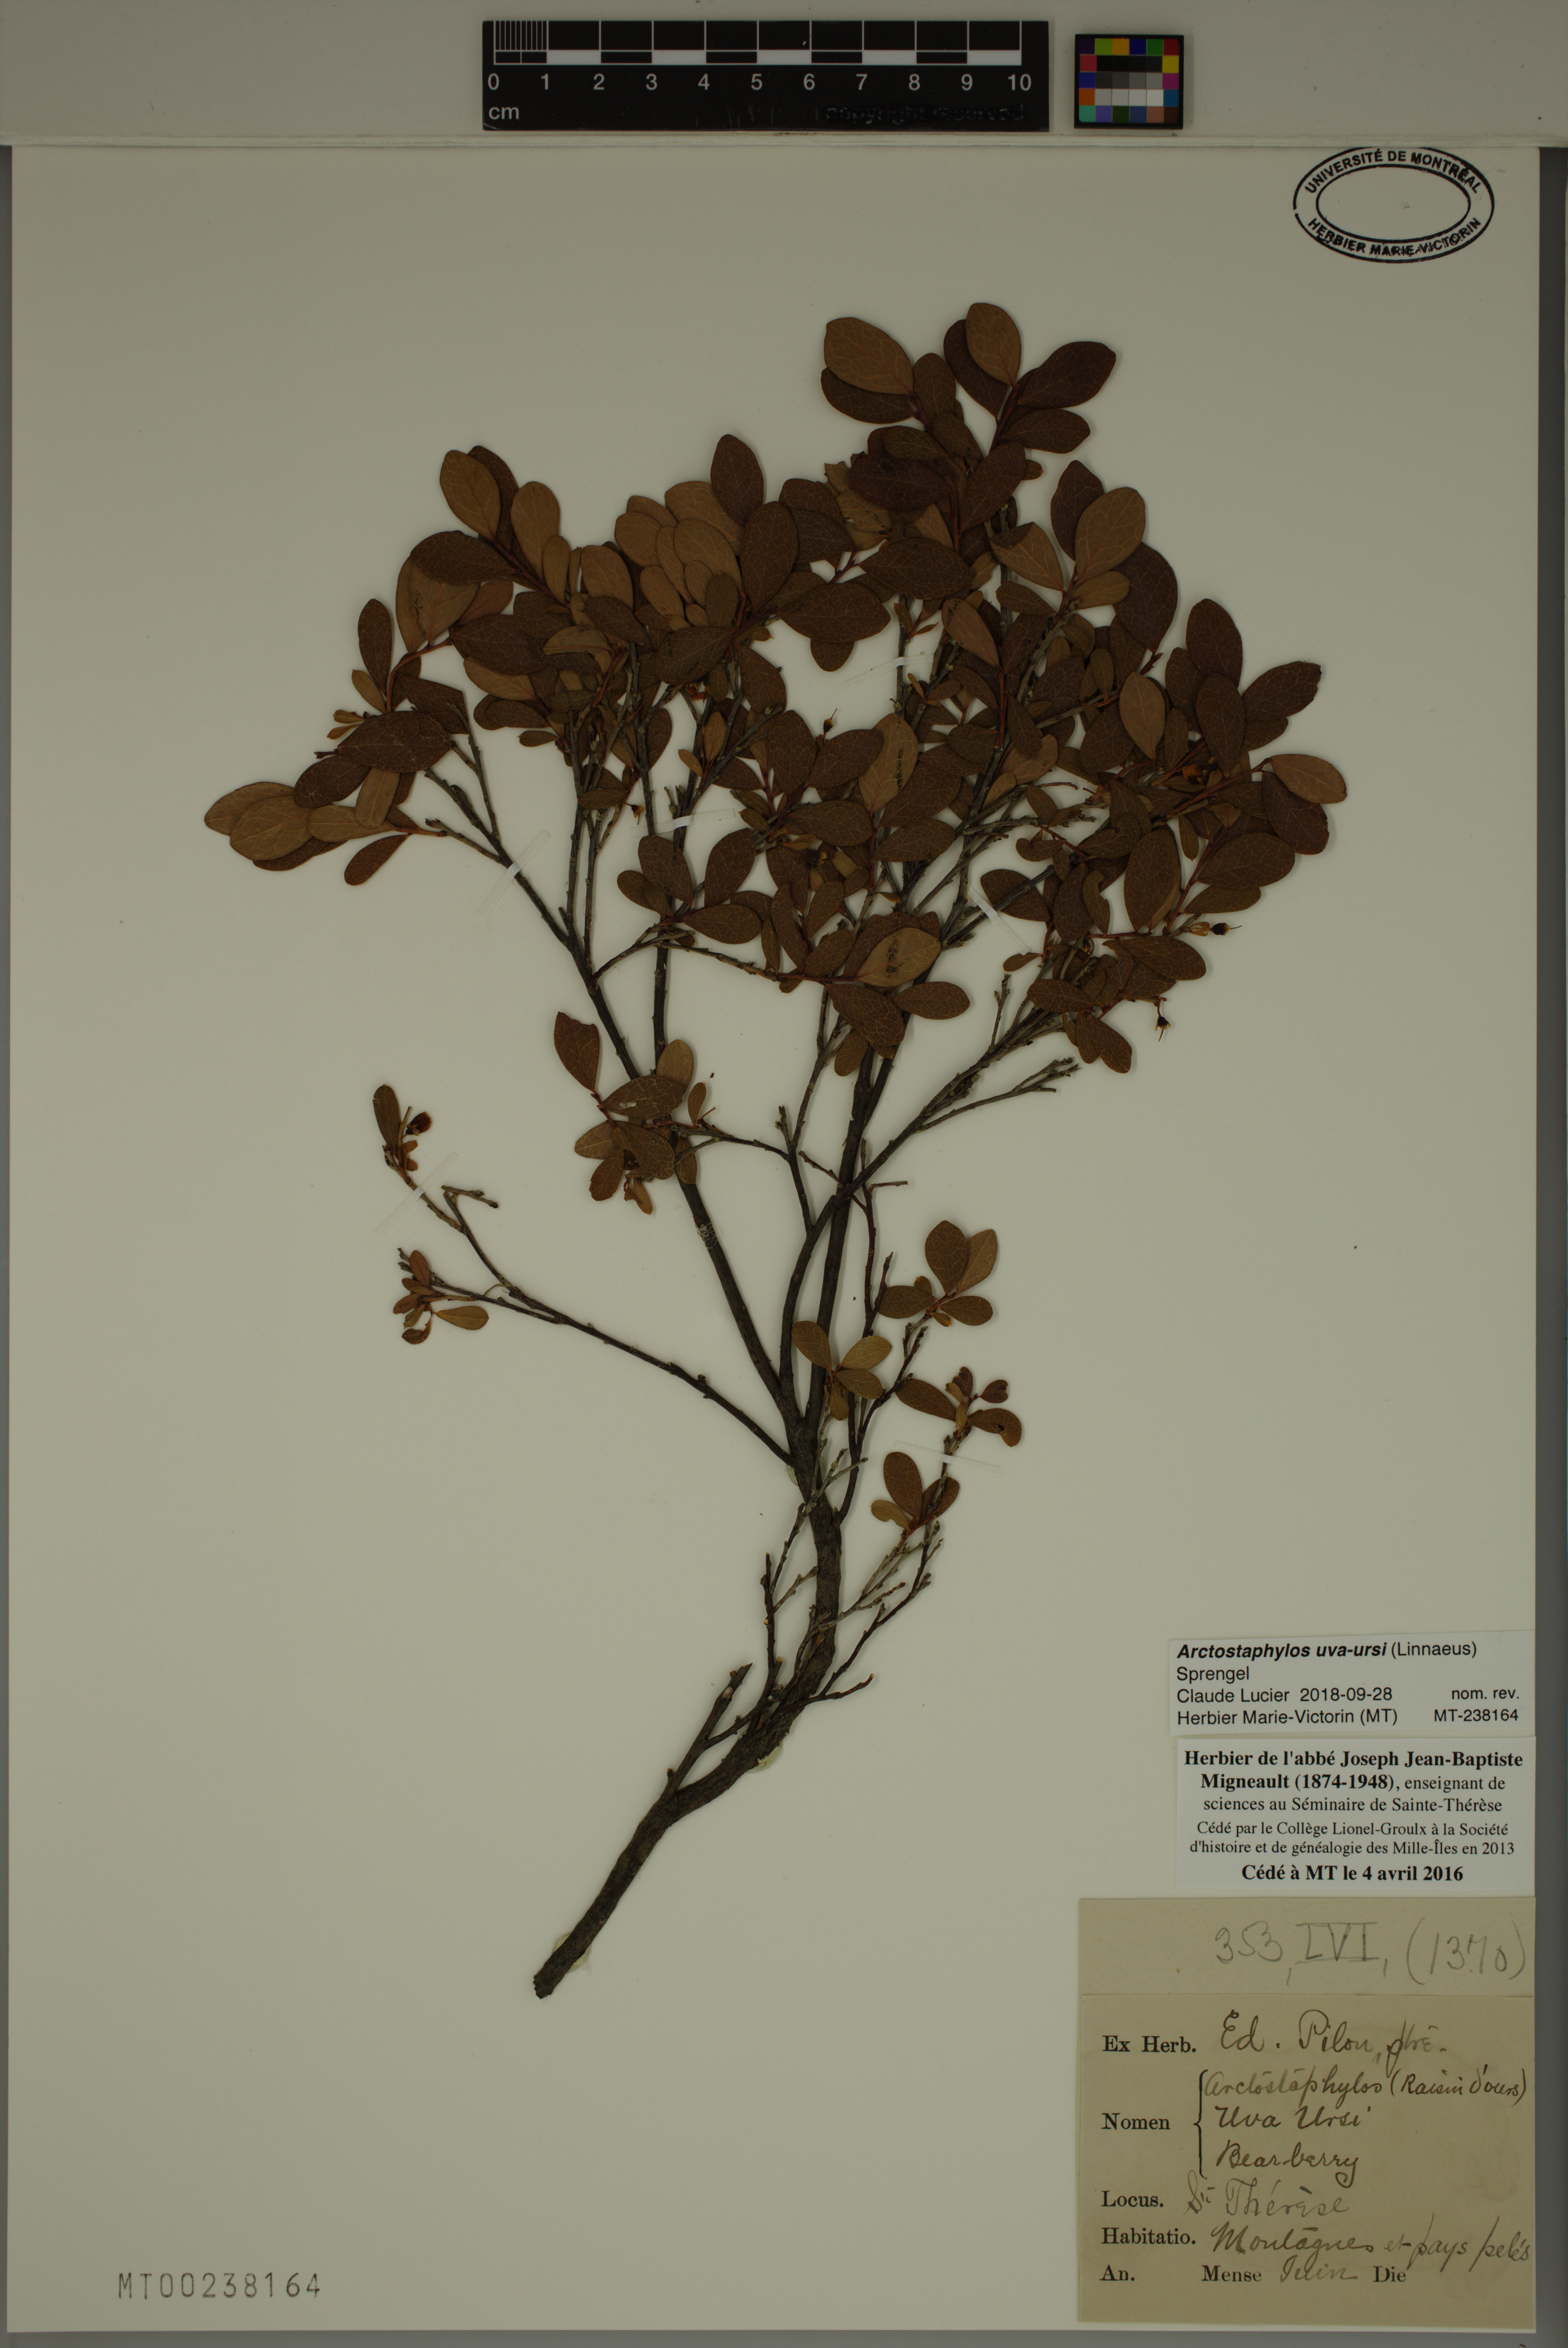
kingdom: Plantae
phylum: Tracheophyta
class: Magnoliopsida
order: Ericales
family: Ericaceae
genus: Arctostaphylos
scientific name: Arctostaphylos uva-ursi
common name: Bearberry
